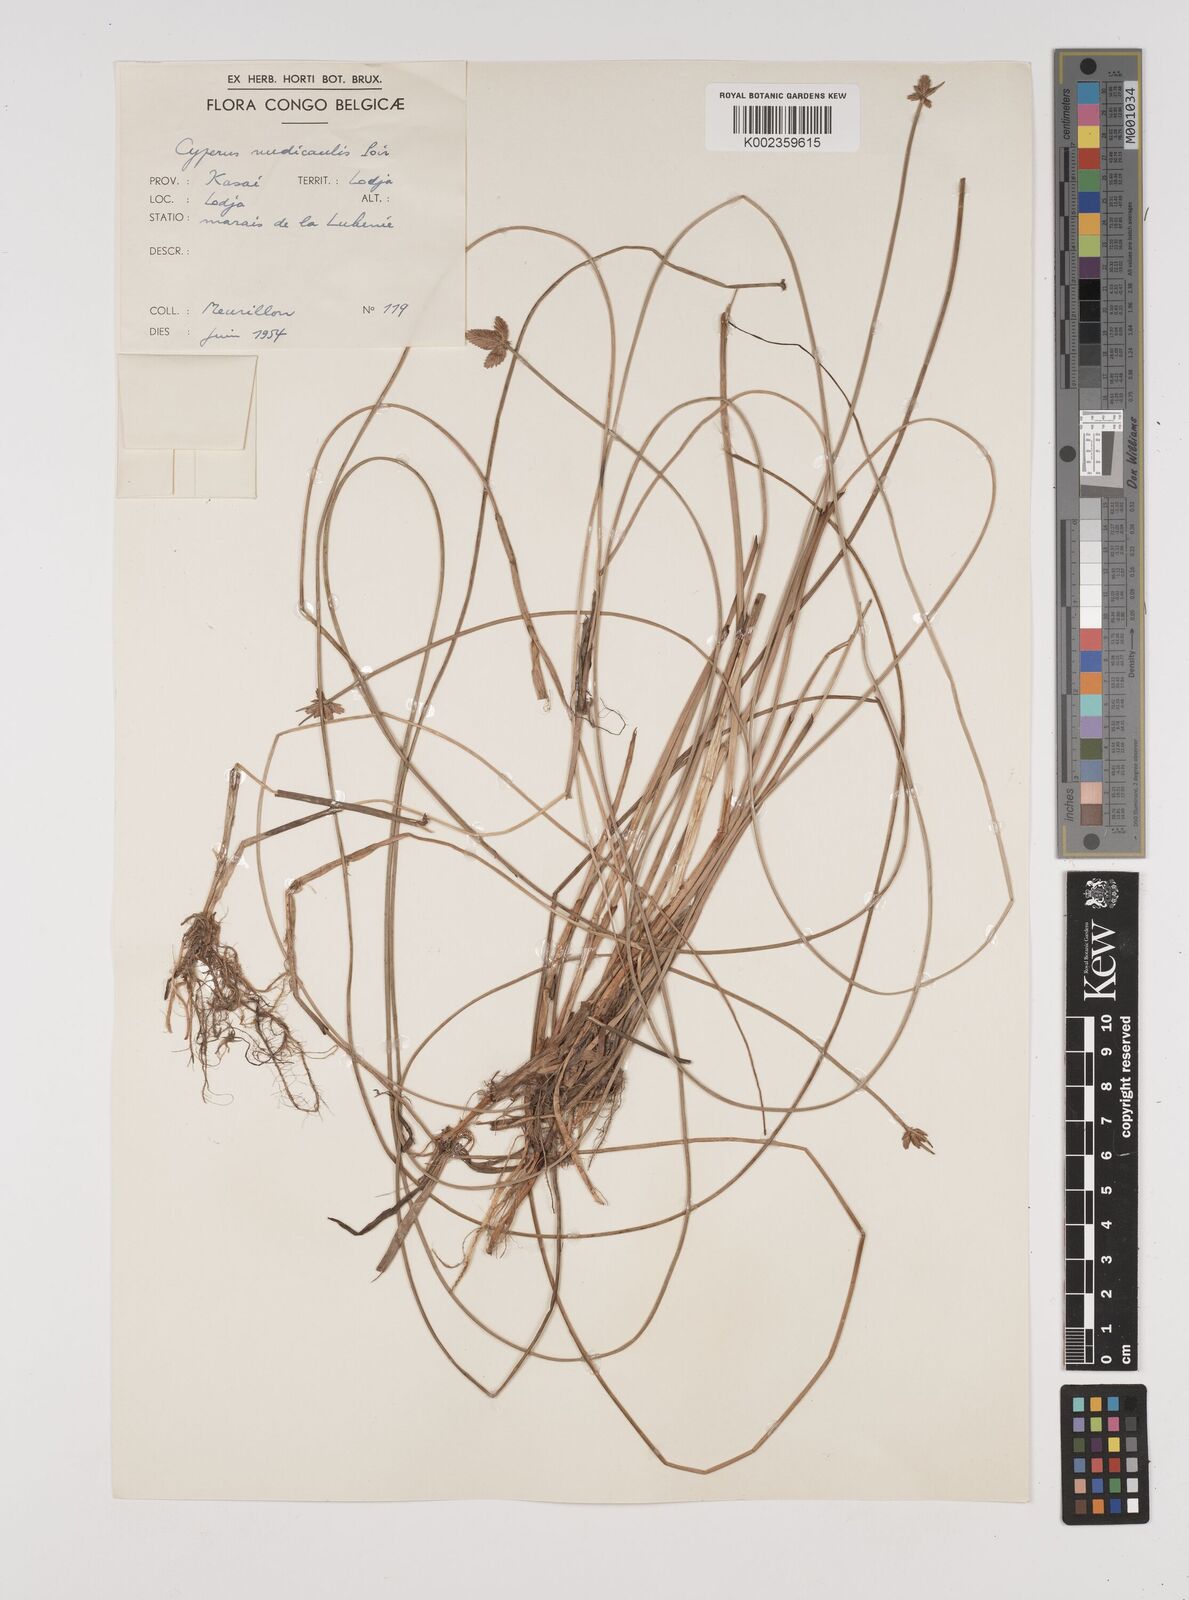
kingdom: Plantae
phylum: Tracheophyta
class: Liliopsida
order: Poales
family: Cyperaceae
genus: Cyperus
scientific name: Cyperus pectinatus
